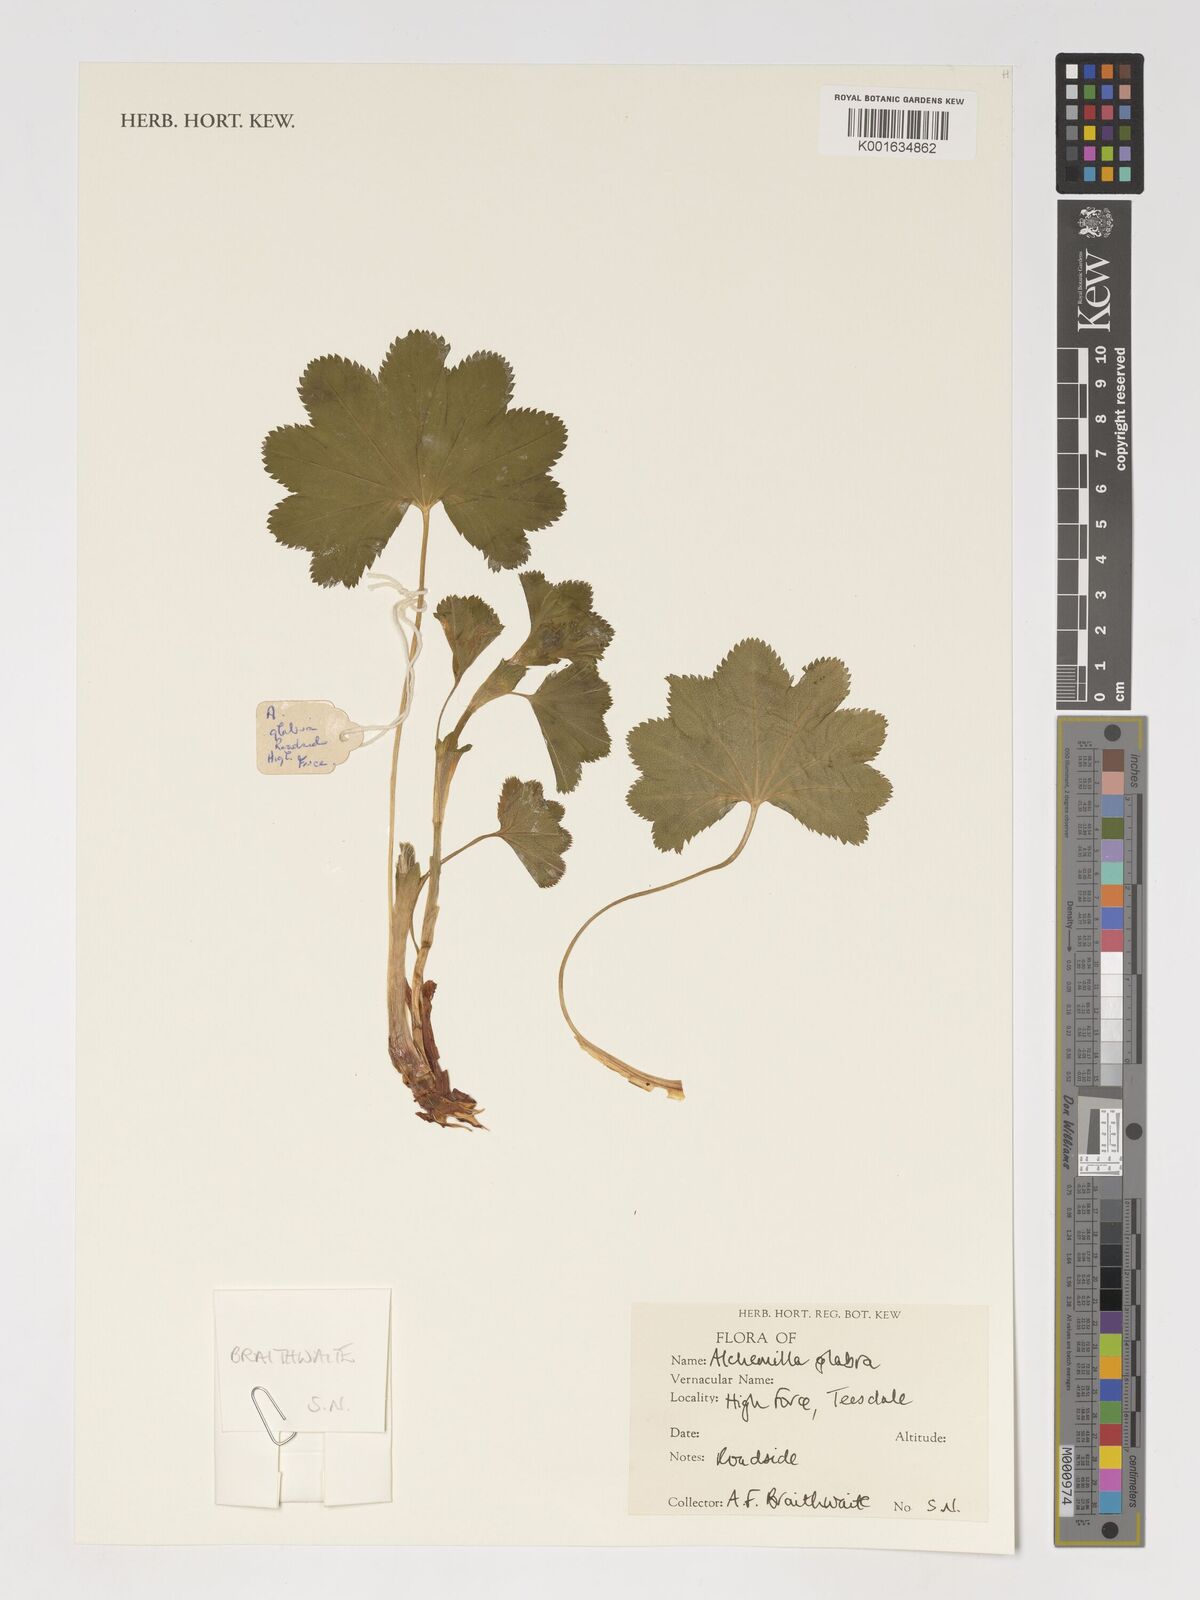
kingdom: Plantae
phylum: Tracheophyta
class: Magnoliopsida
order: Rosales
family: Rosaceae
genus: Alchemilla
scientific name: Alchemilla glabra
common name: Smooth lady's-mantle
